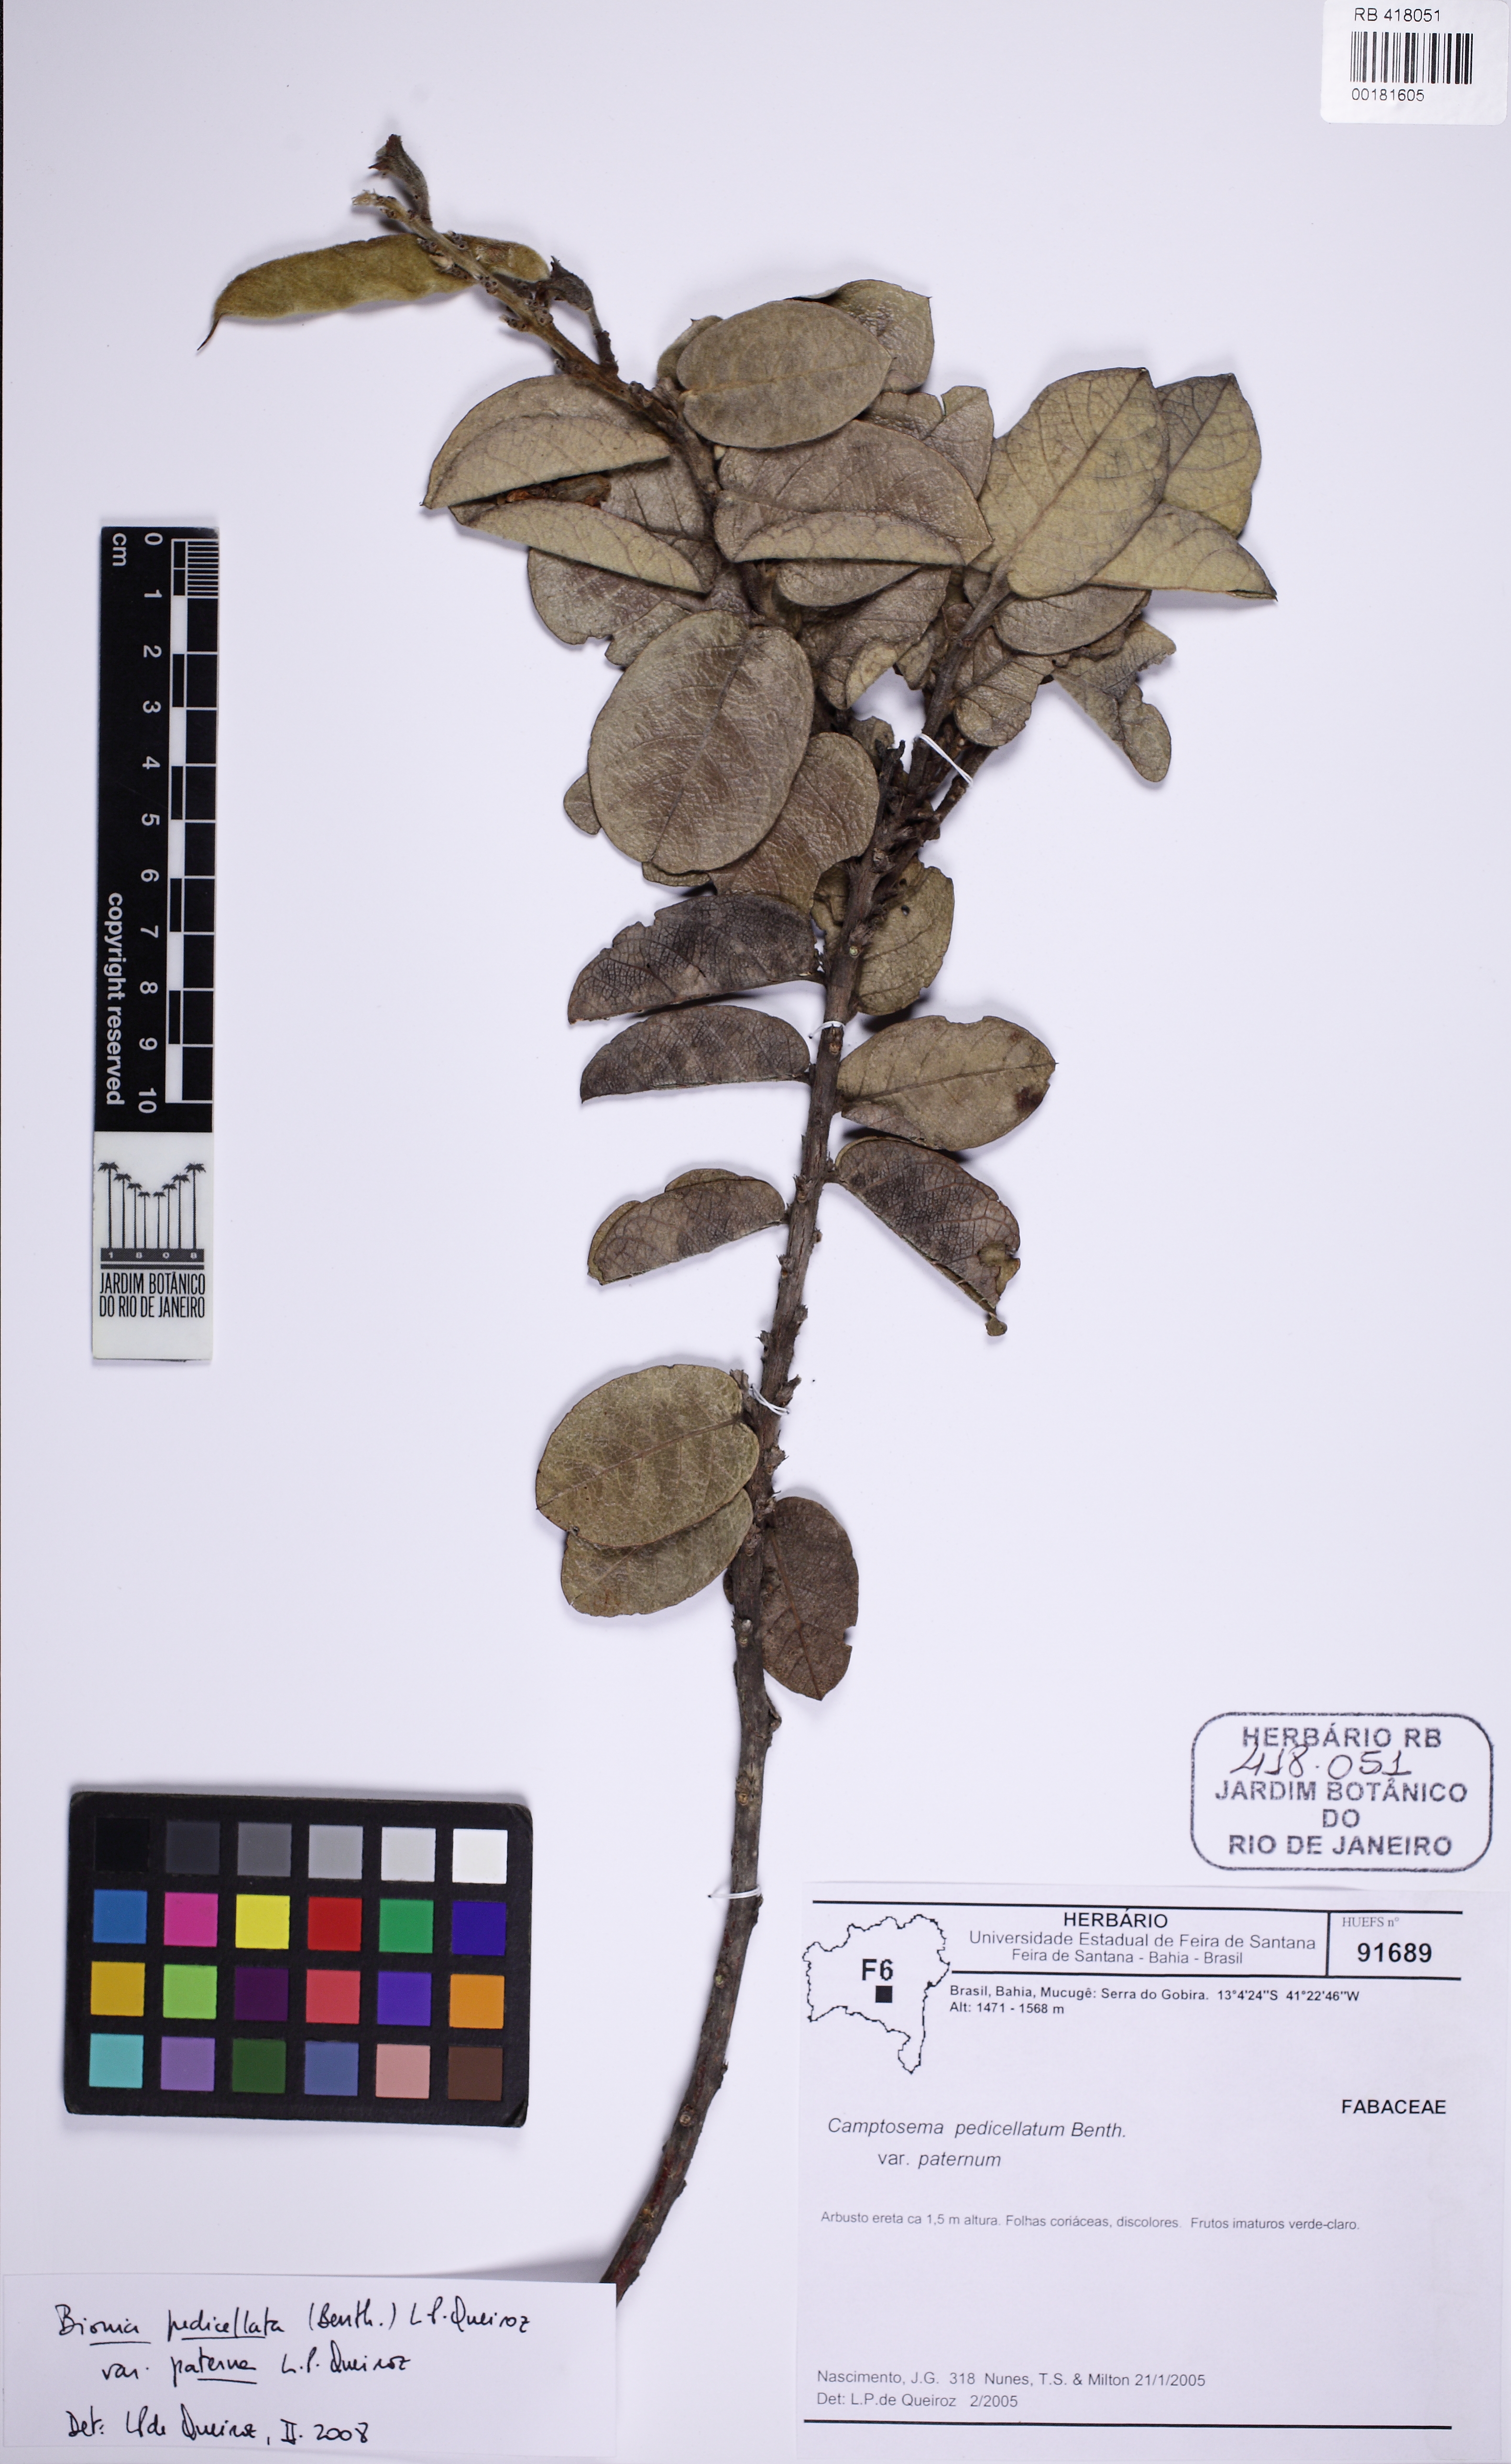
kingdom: Plantae
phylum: Tracheophyta
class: Magnoliopsida
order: Fabales
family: Fabaceae
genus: Camptosema
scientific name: Camptosema
